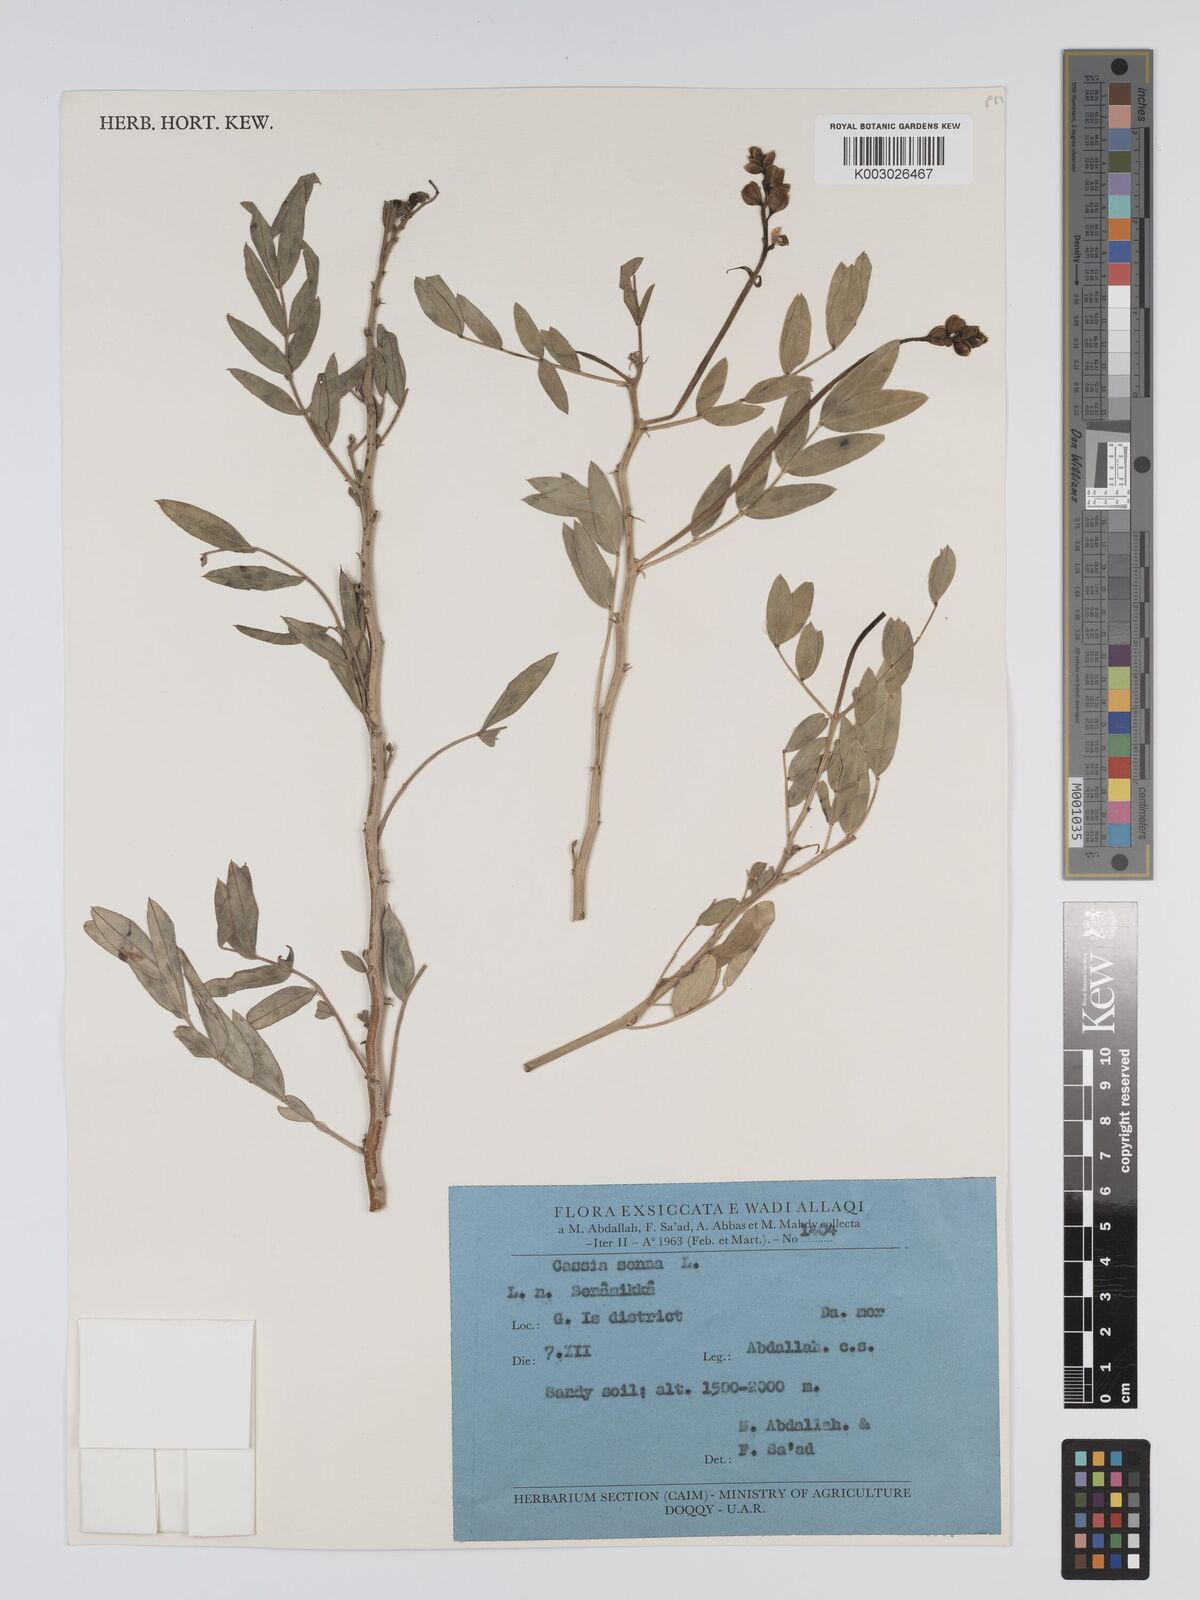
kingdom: Plantae
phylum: Tracheophyta
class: Magnoliopsida
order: Fabales
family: Fabaceae
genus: Senna
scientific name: Senna alexandrina
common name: True senna
